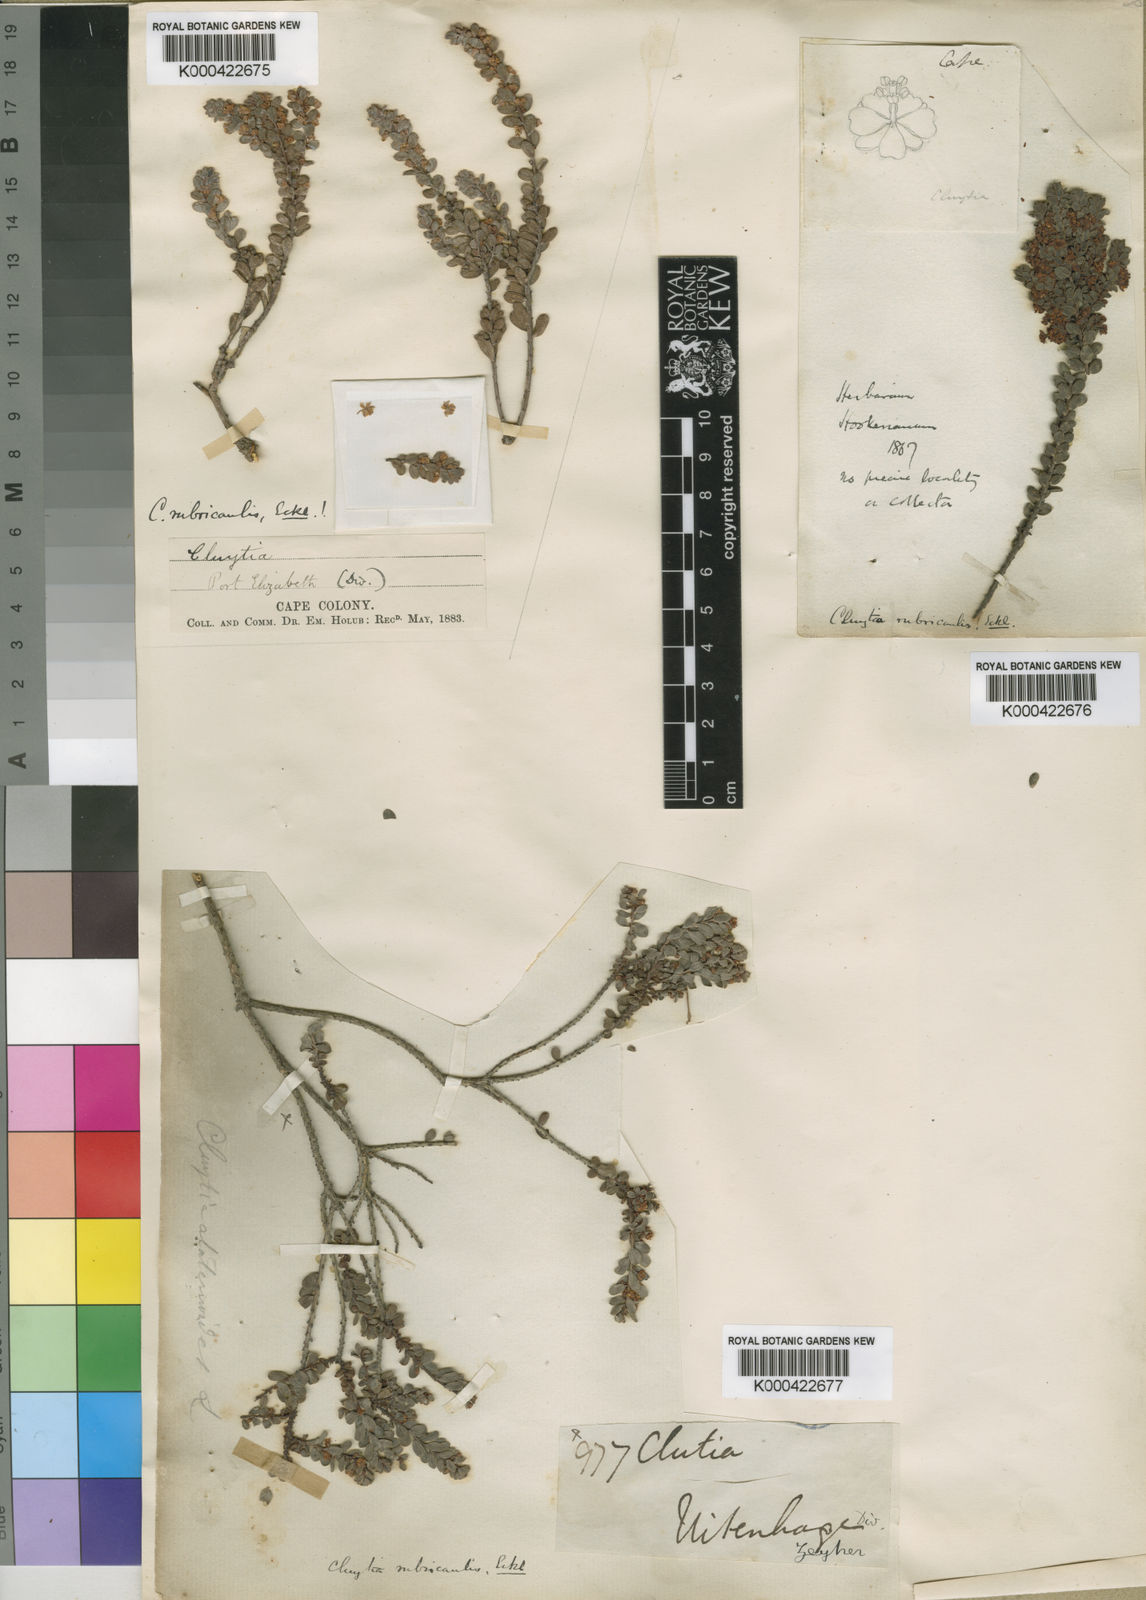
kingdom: Plantae
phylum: Tracheophyta
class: Magnoliopsida
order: Malpighiales
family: Peraceae
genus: Clutia
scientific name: Clutia rubricaulis
